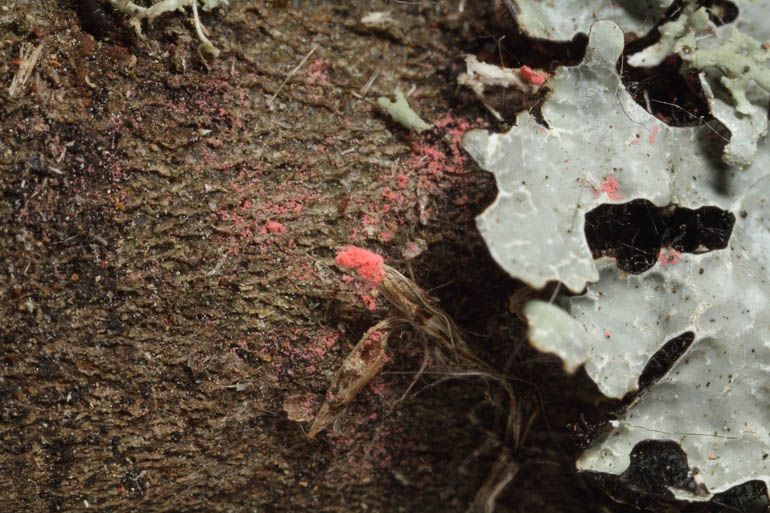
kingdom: Fungi
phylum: Ascomycota
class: Sordariomycetes
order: Hypocreales
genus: Illosporiopsis
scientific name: Illosporiopsis christiansenii
